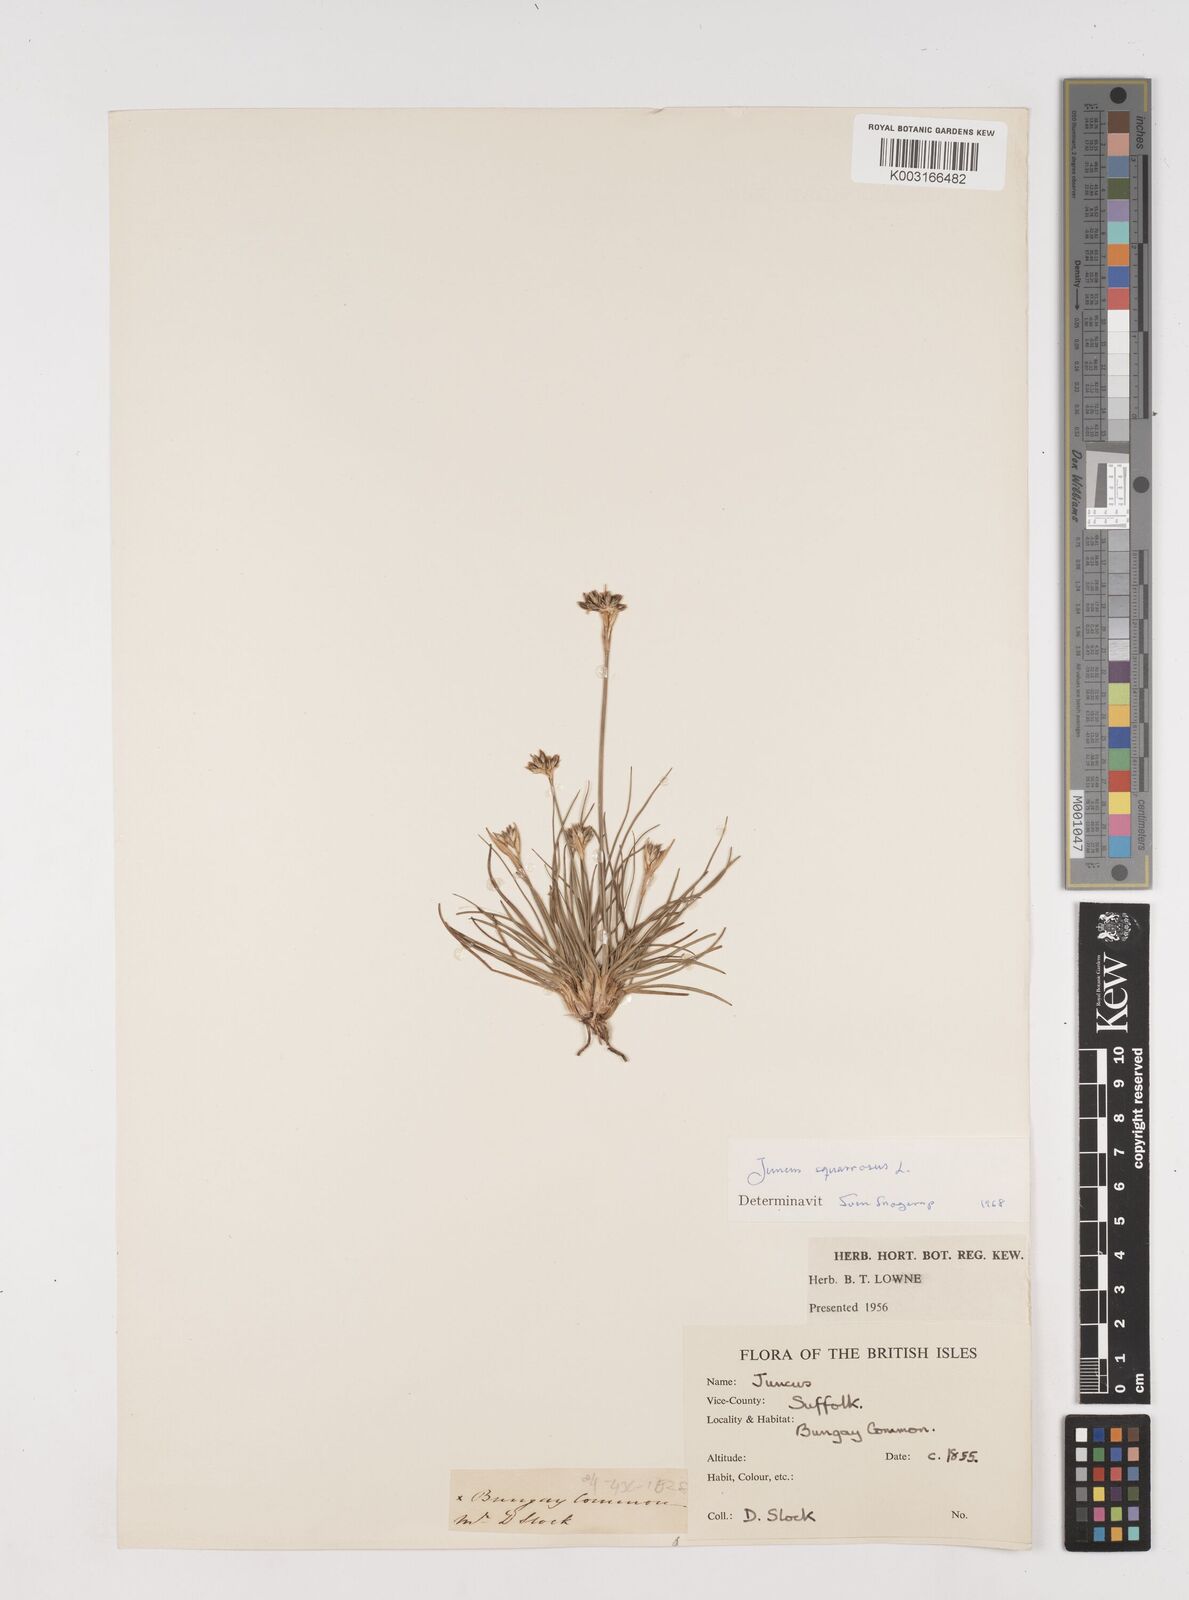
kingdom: Plantae
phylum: Tracheophyta
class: Liliopsida
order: Poales
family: Juncaceae
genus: Juncus
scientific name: Juncus squarrosus
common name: Heath rush
